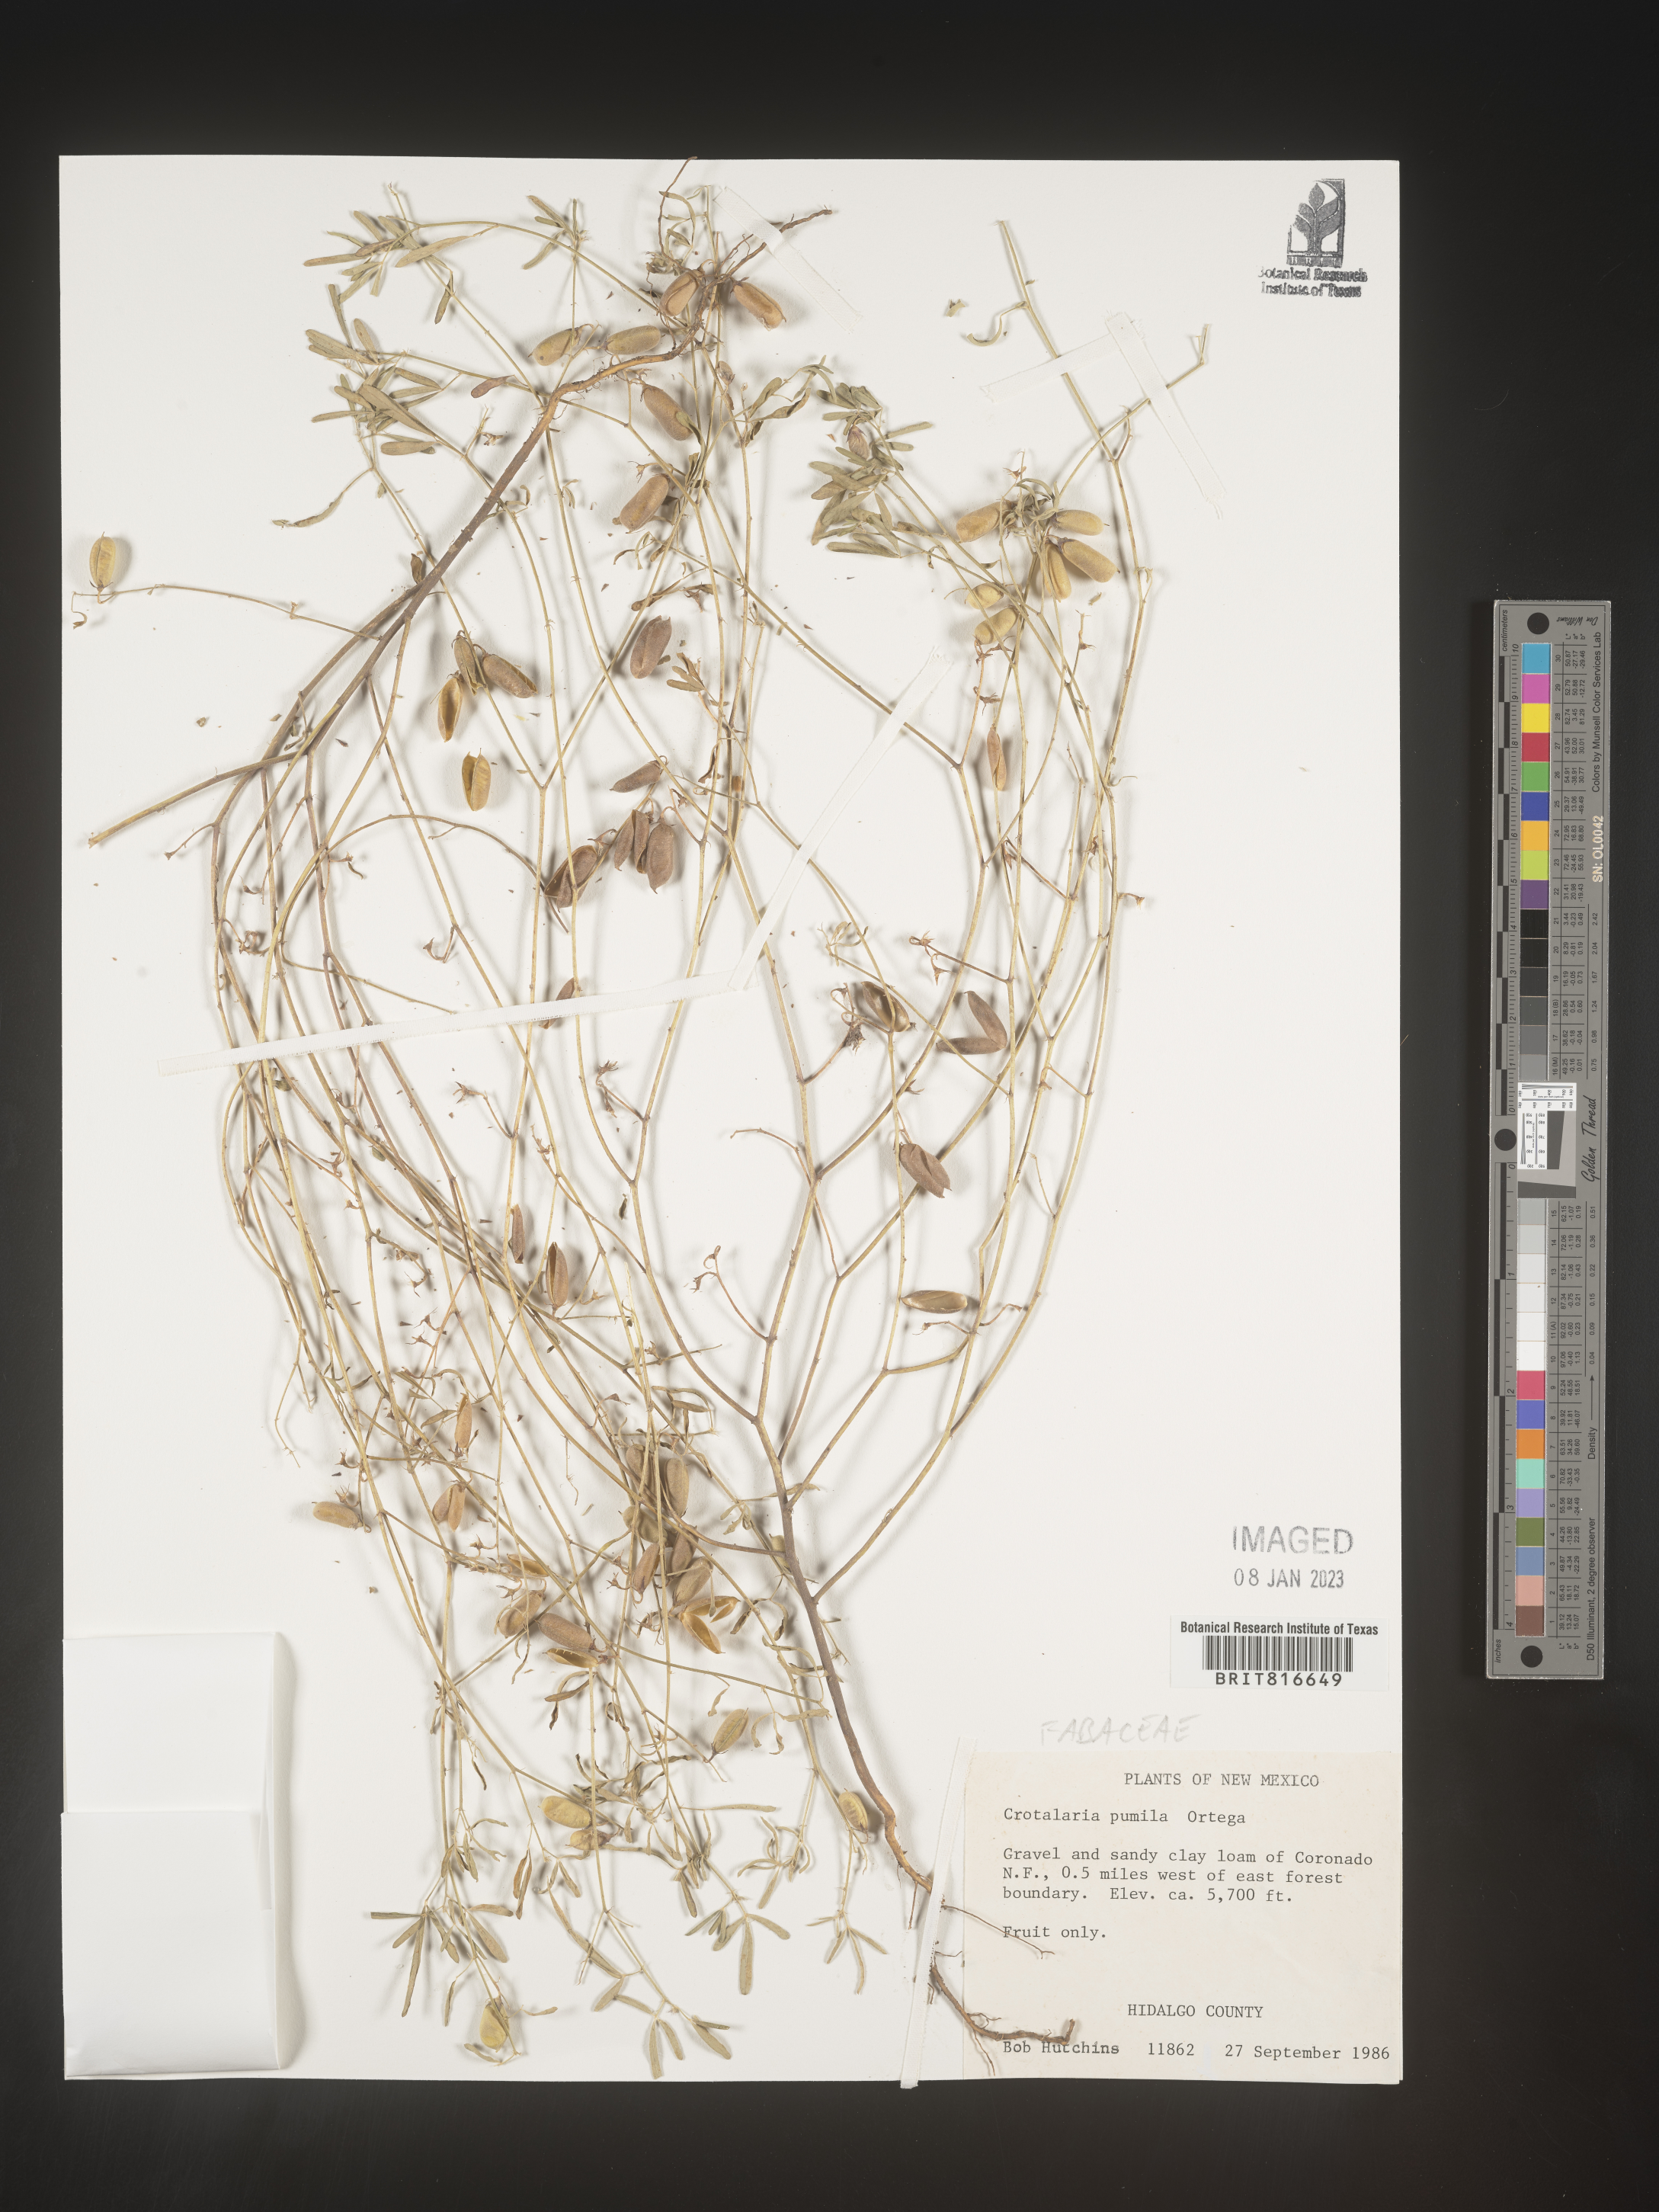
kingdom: Plantae
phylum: Tracheophyta
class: Magnoliopsida
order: Fabales
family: Fabaceae
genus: Crotalaria
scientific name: Crotalaria pumila
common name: Low rattlebox
